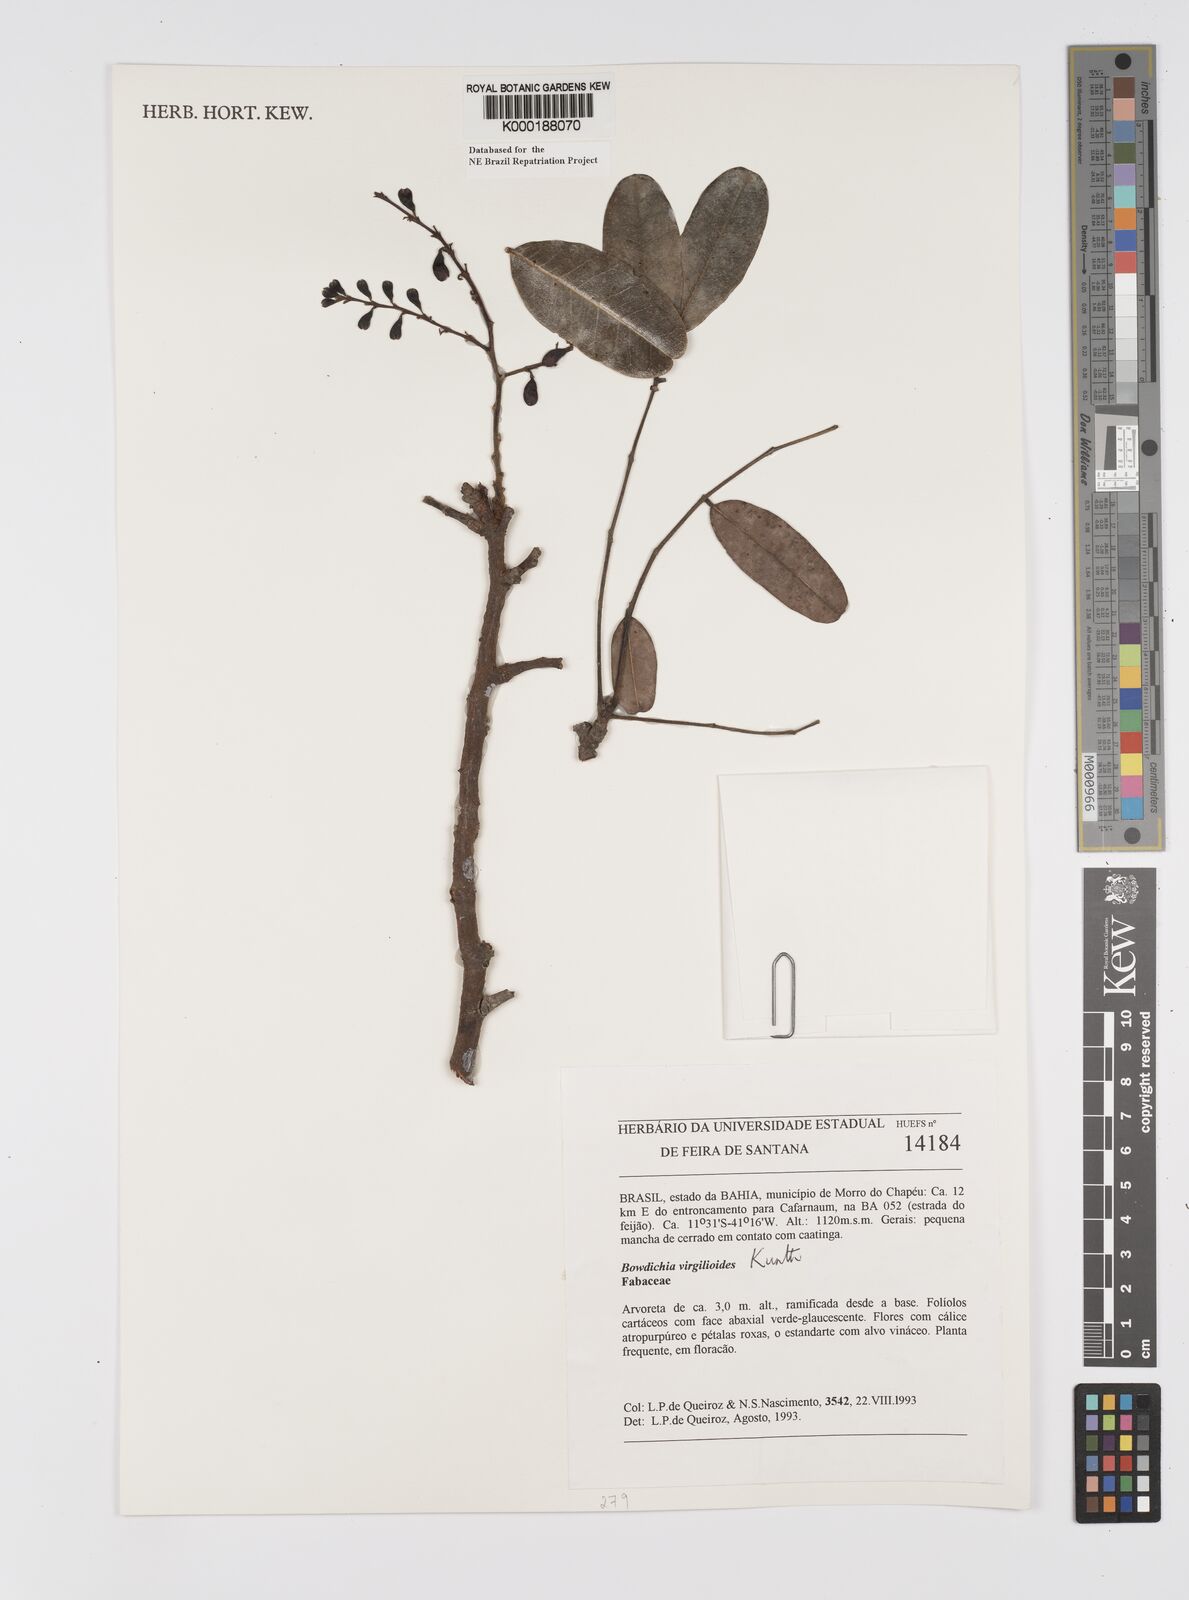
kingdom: Plantae
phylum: Tracheophyta
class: Magnoliopsida
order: Fabales
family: Fabaceae
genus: Bowdichia
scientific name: Bowdichia virgilioides
